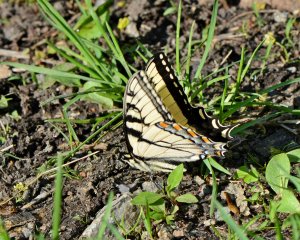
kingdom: Animalia
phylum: Arthropoda
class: Insecta
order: Lepidoptera
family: Papilionidae
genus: Pterourus
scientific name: Pterourus glaucus
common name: Eastern Tiger Swallowtail
